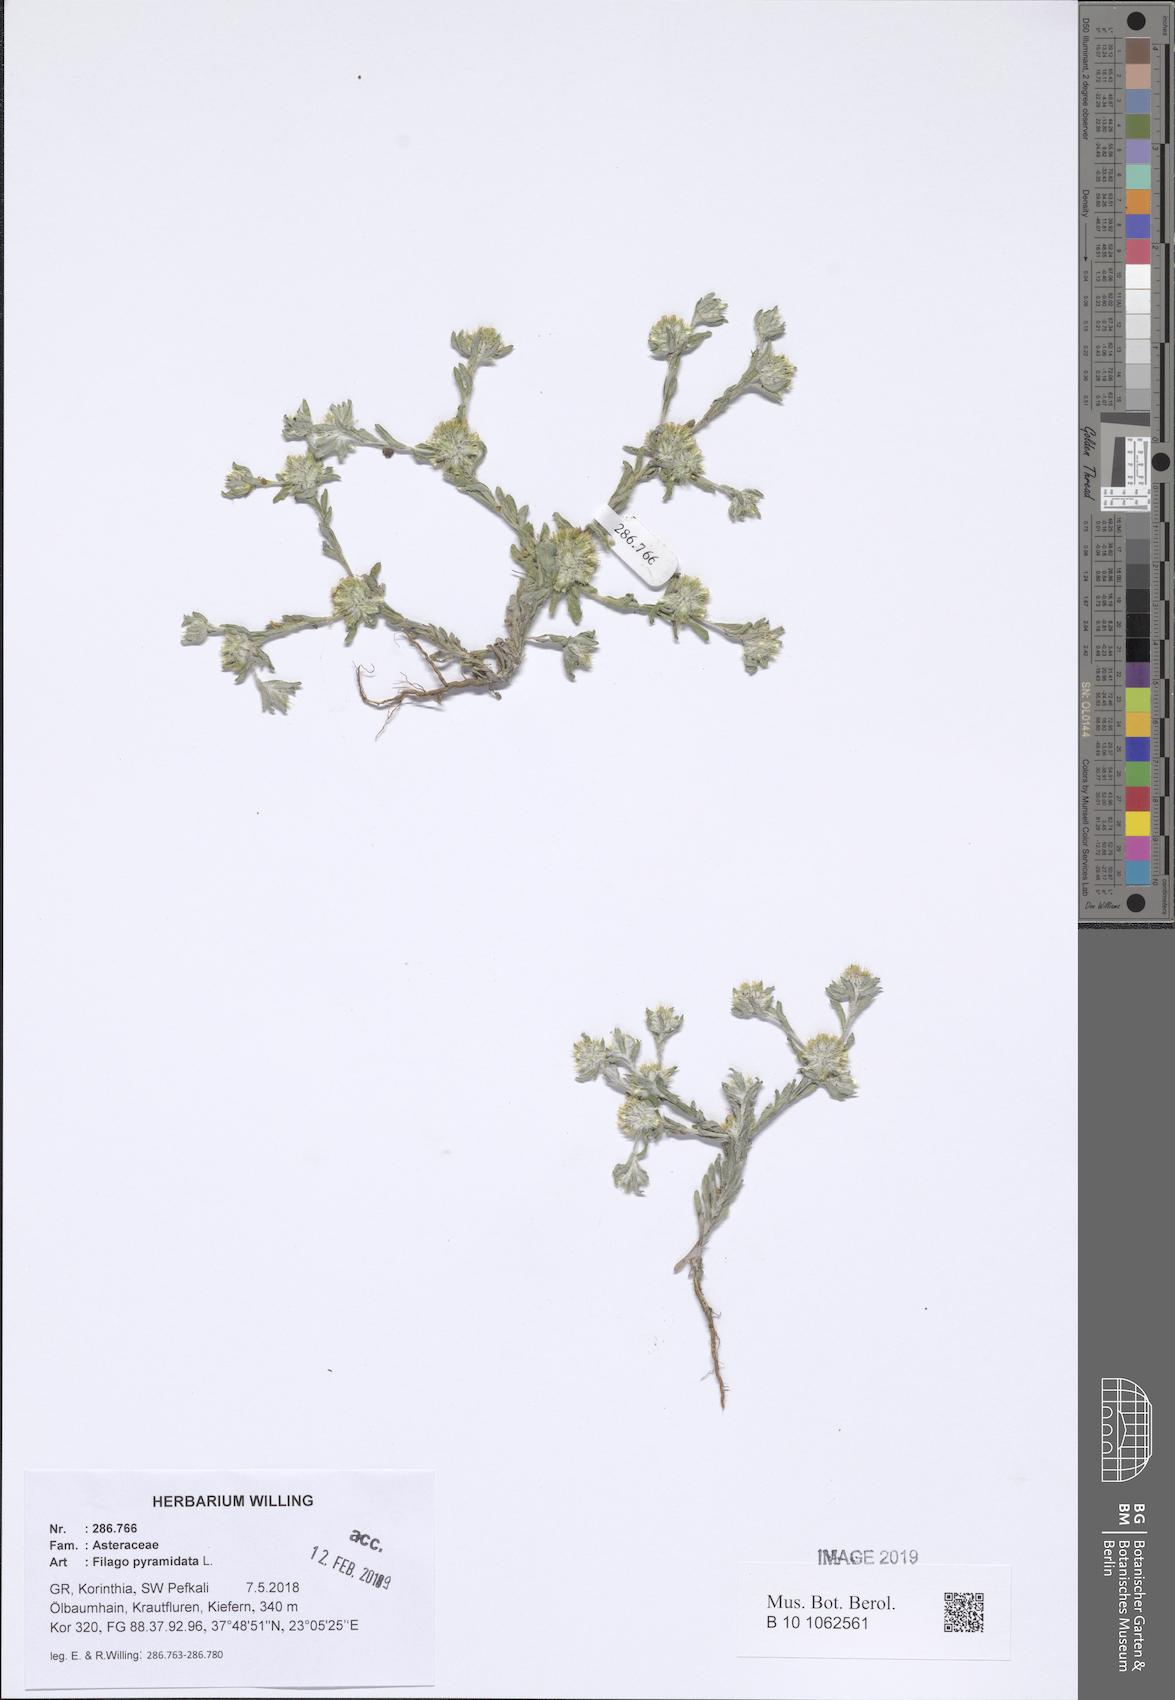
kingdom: Plantae
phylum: Tracheophyta
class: Magnoliopsida
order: Asterales
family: Asteraceae
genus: Filago
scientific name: Filago pyramidata
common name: Broad-leaved cudweed
